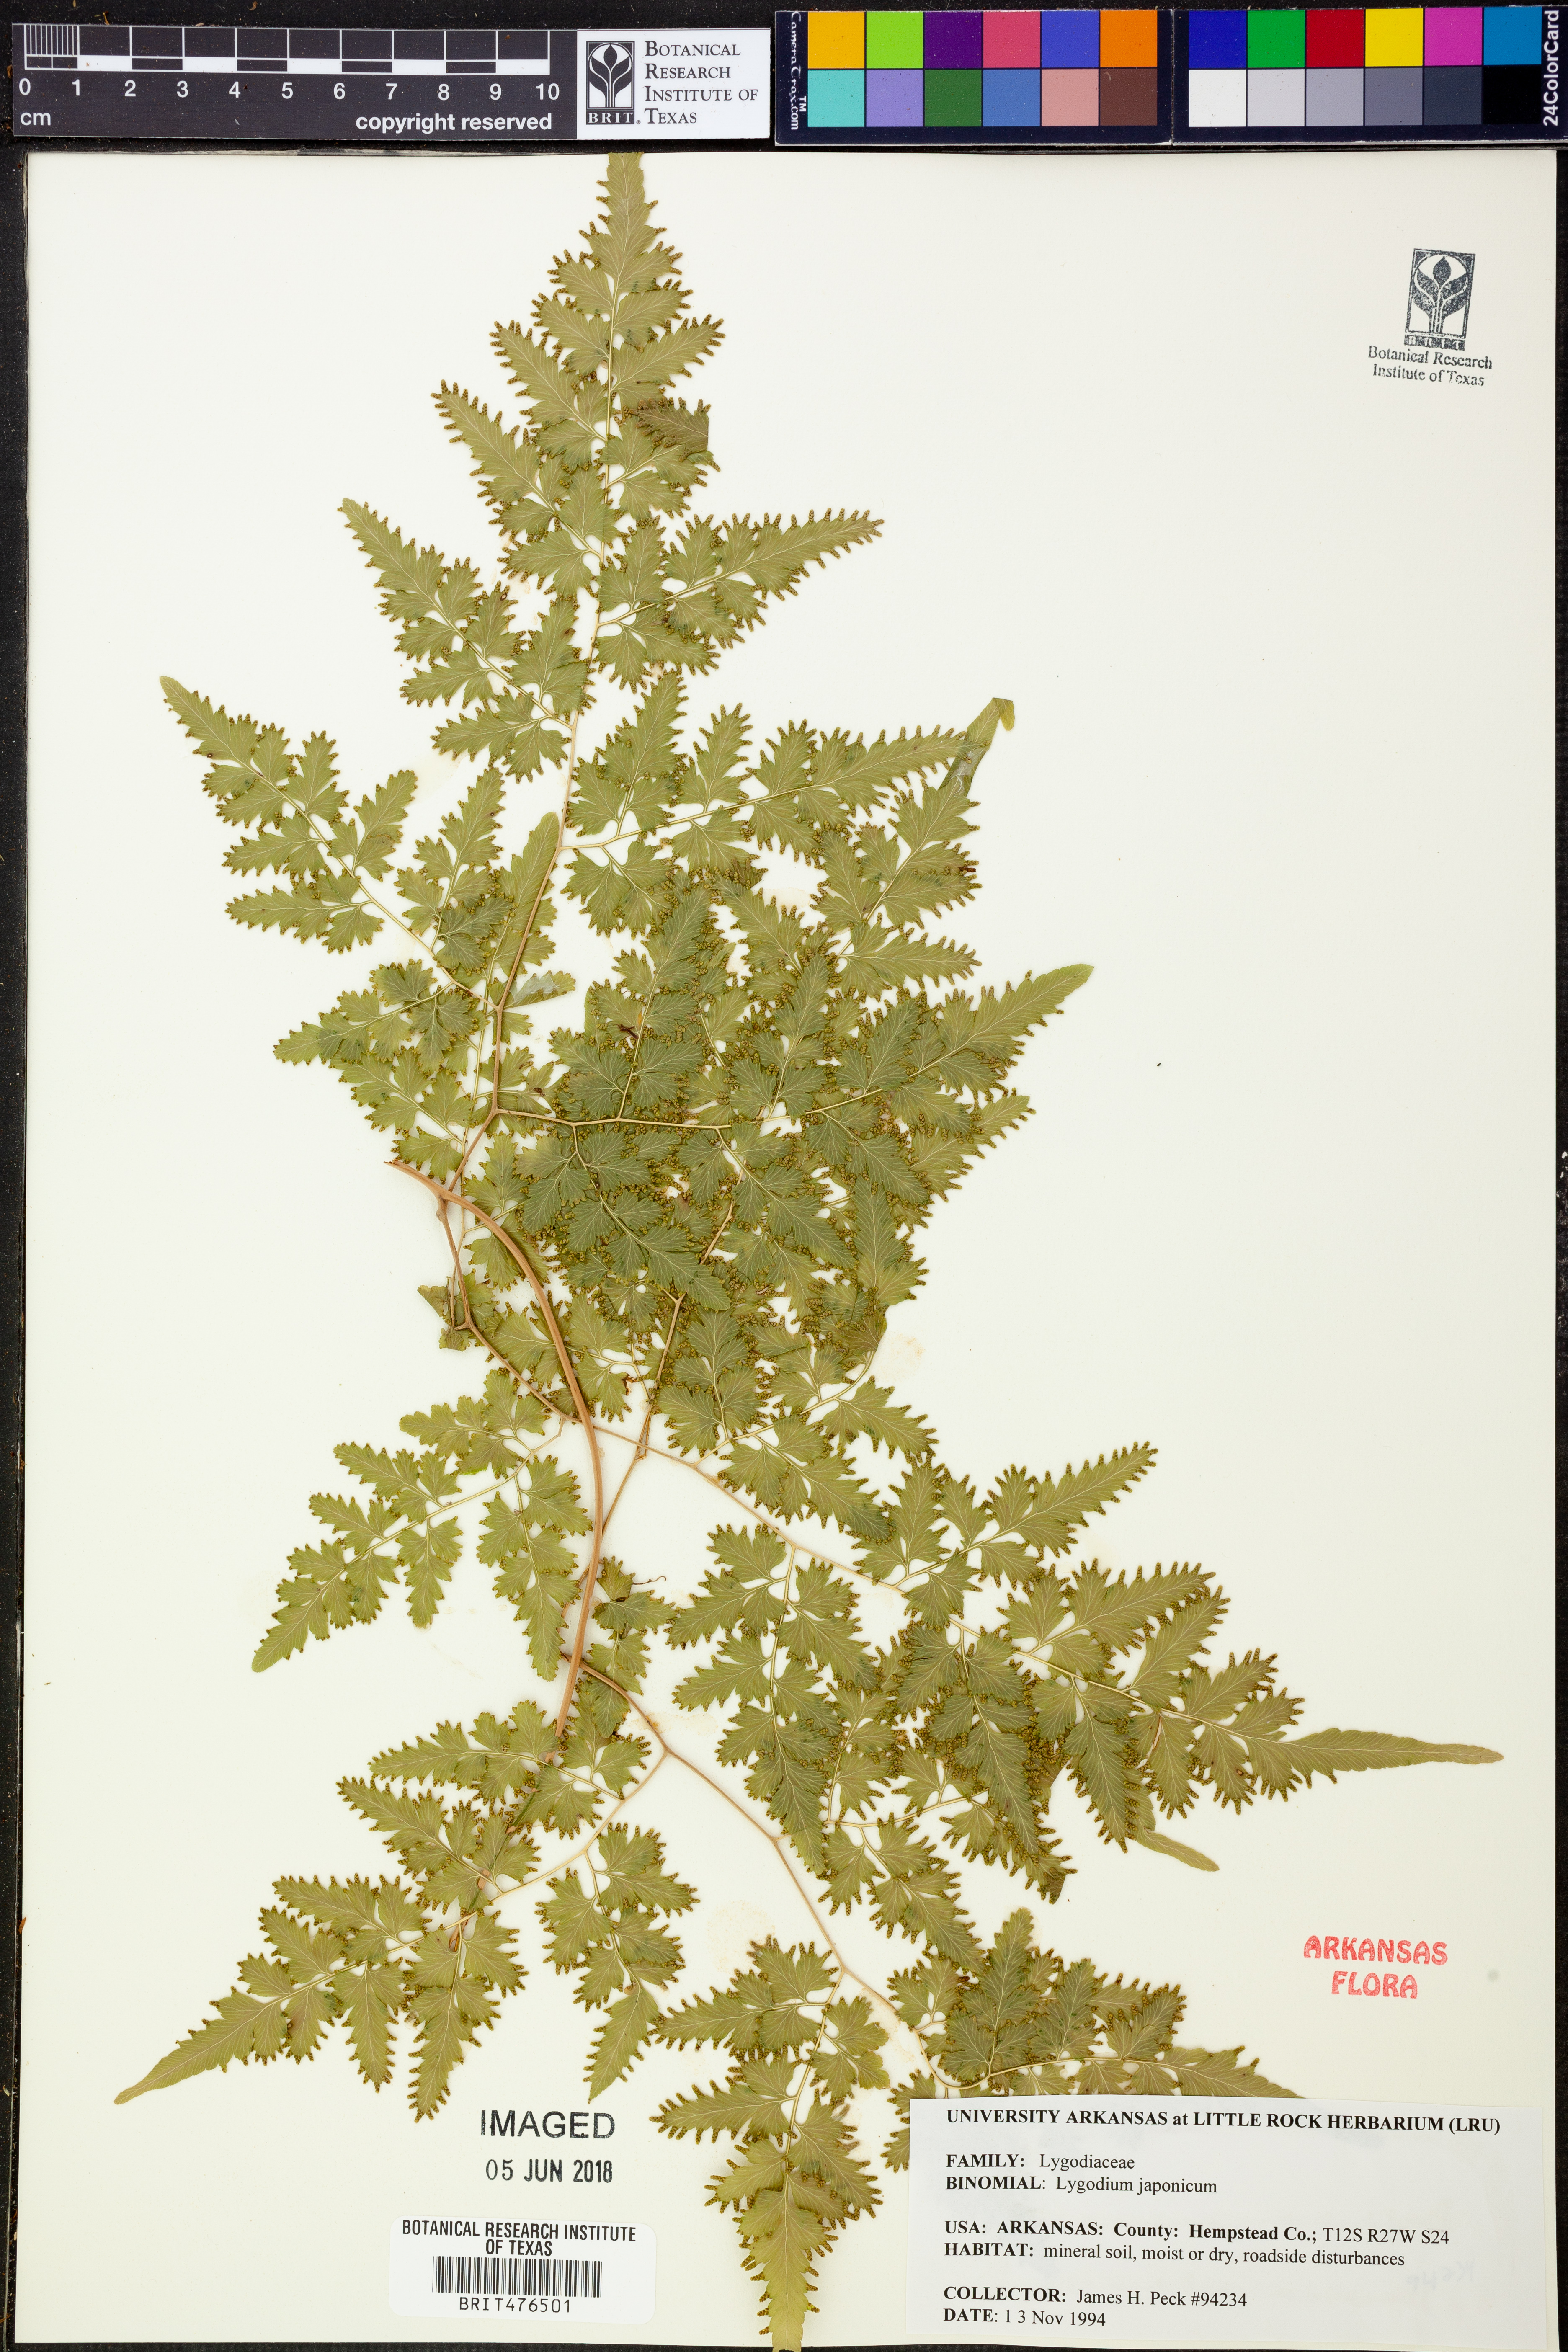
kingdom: Plantae
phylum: Tracheophyta
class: Polypodiopsida
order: Schizaeales
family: Lygodiaceae
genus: Lygodium
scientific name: Lygodium japonicum
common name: Japanese climbing fern
